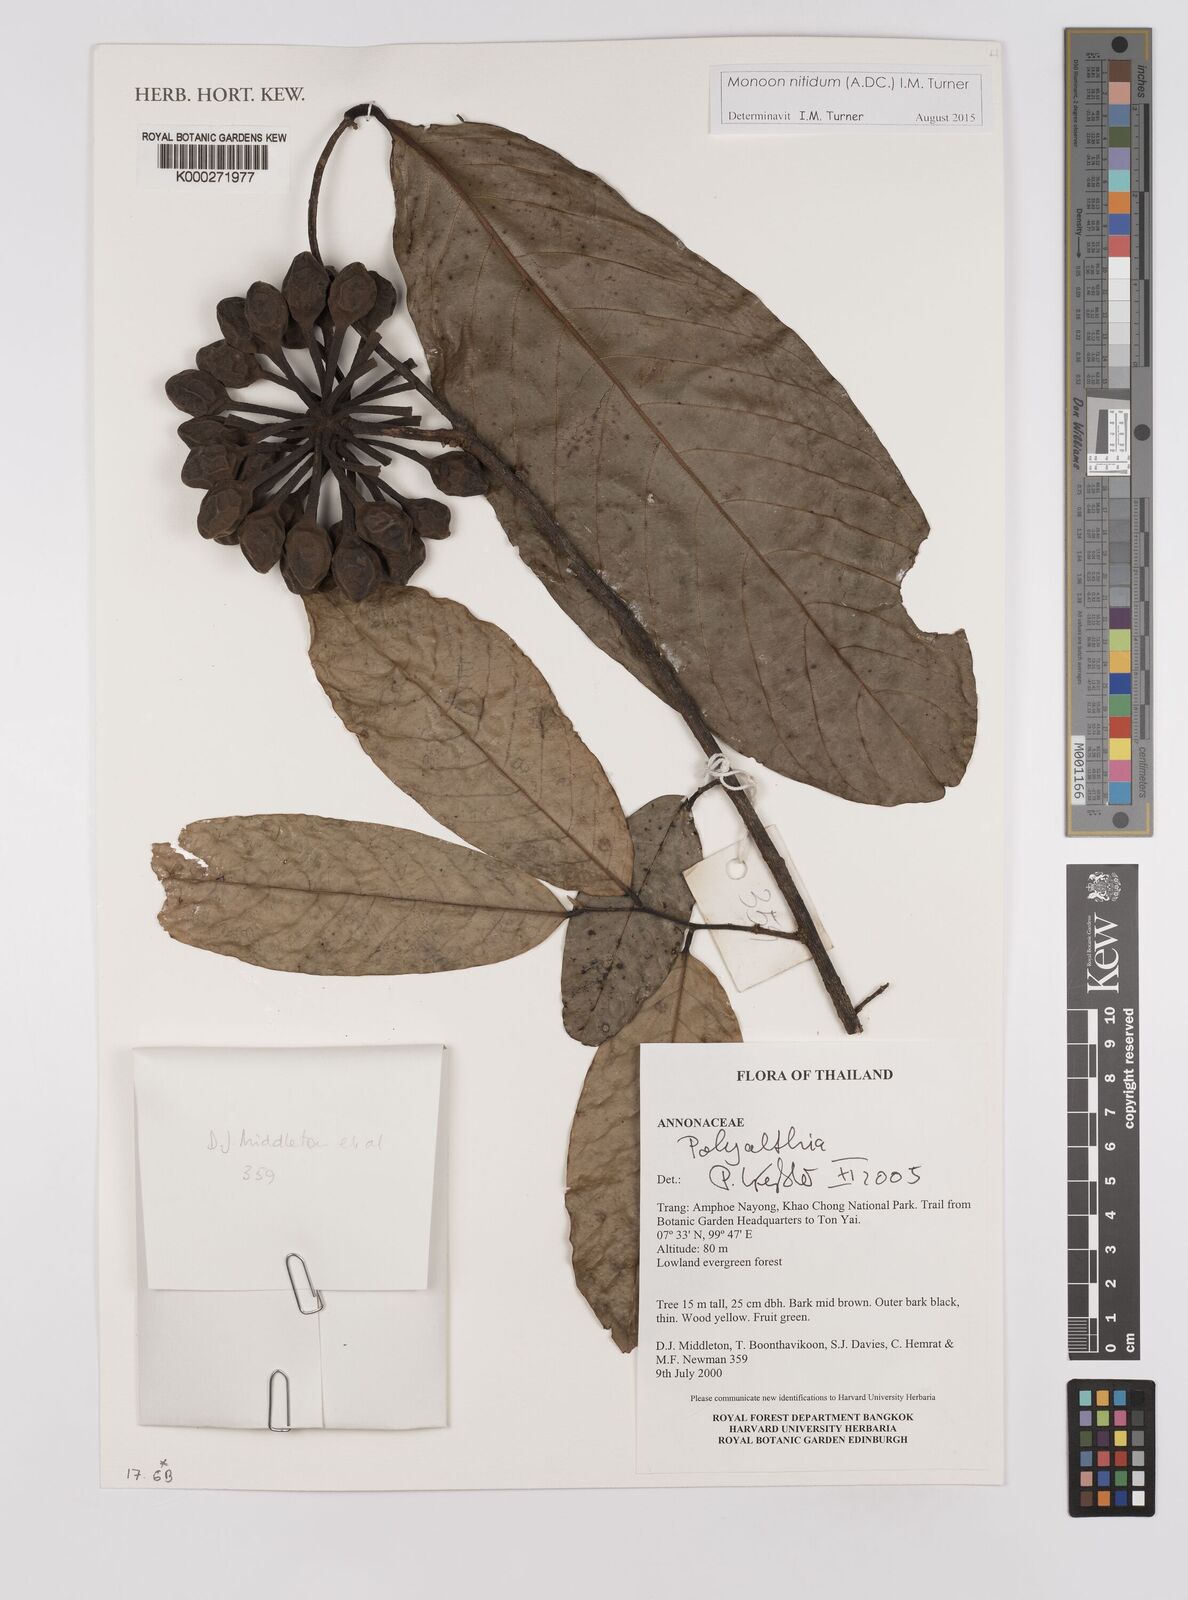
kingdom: Plantae
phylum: Tracheophyta
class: Magnoliopsida
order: Magnoliales
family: Annonaceae
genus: Polyalthia
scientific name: Polyalthia
